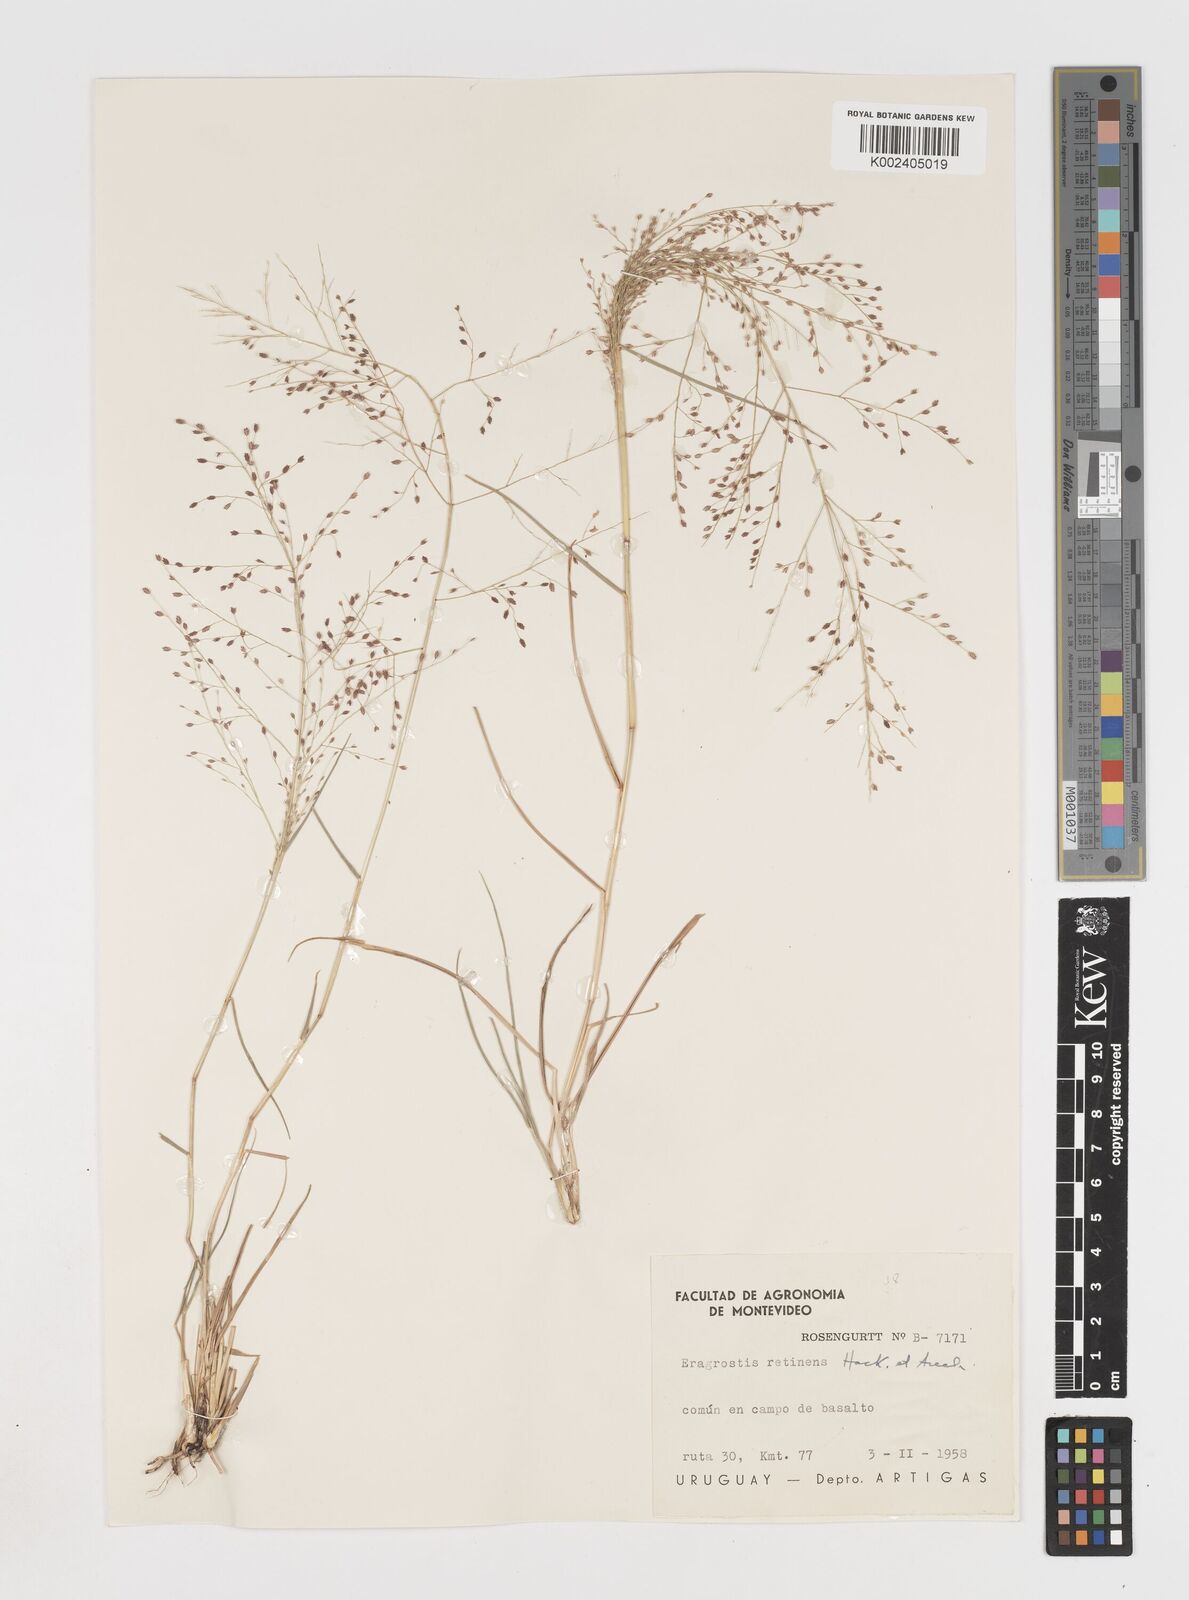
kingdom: Plantae
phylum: Tracheophyta
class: Liliopsida
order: Poales
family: Poaceae
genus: Eragrostis
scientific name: Eragrostis retinens
